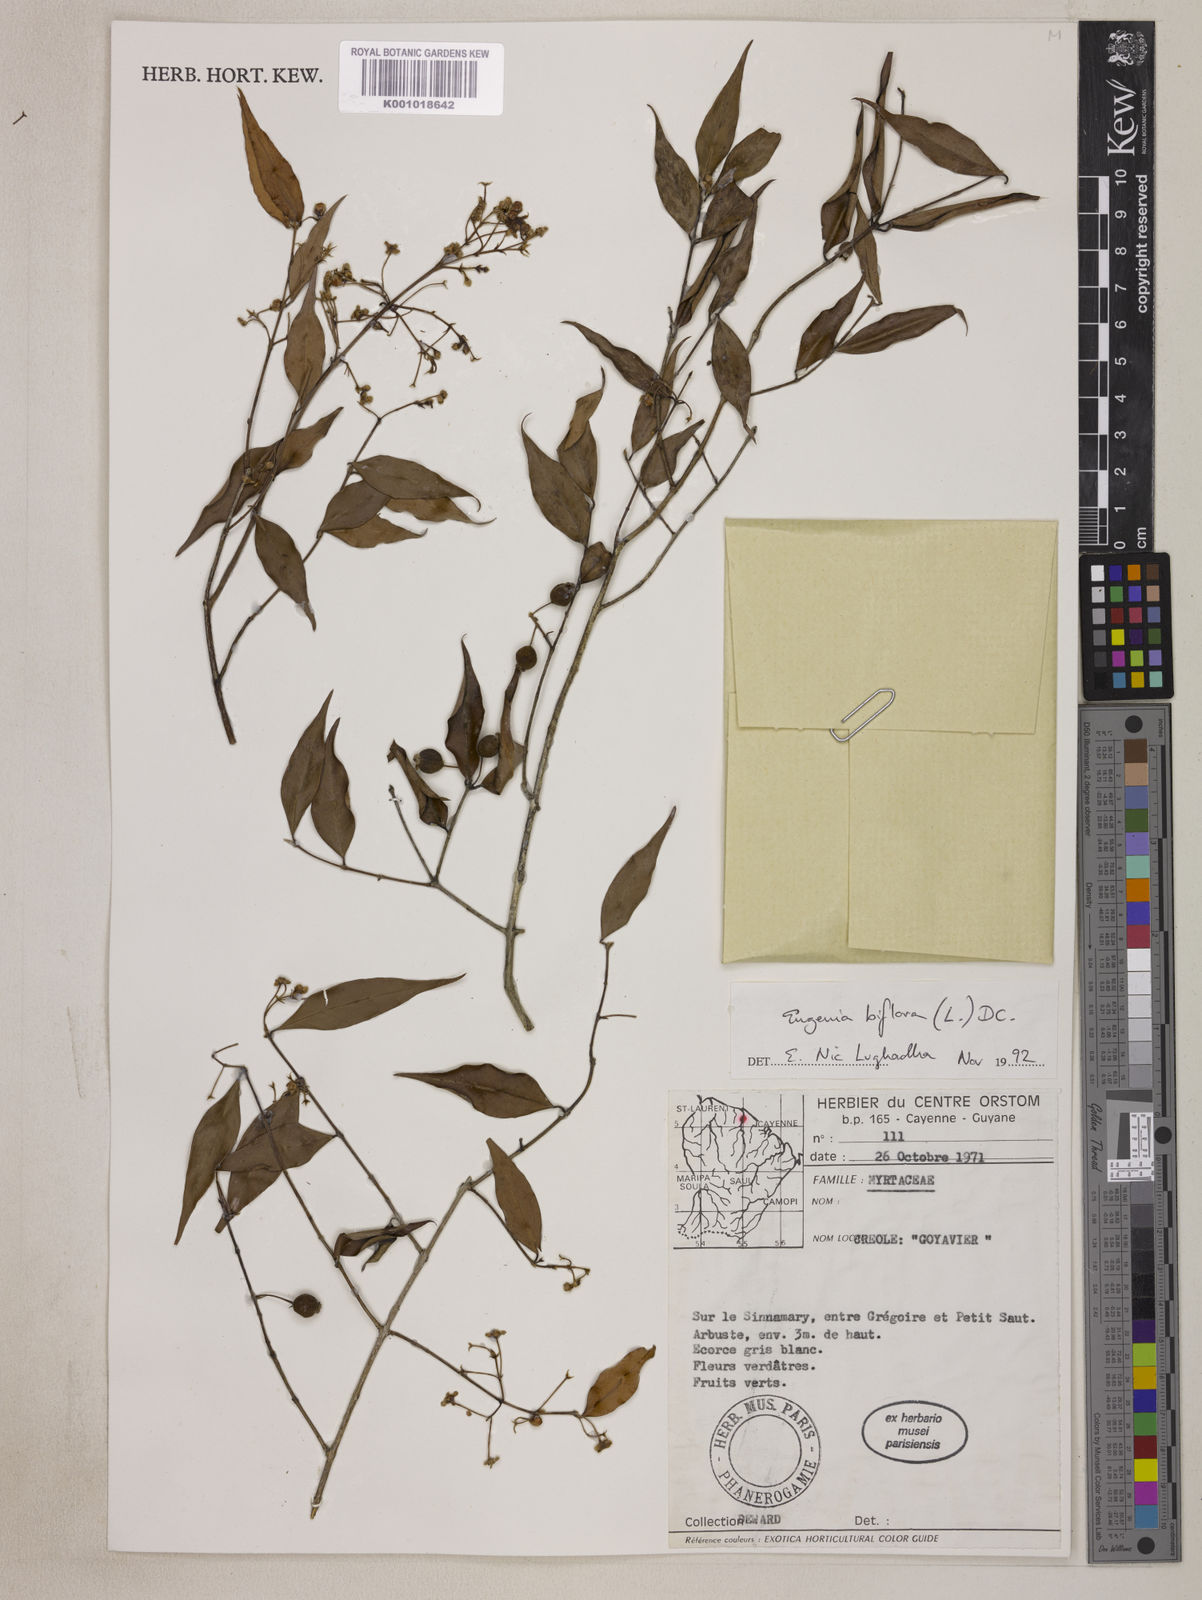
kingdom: Plantae
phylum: Tracheophyta
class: Magnoliopsida
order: Myrtales
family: Myrtaceae
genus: Eugenia
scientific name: Eugenia biflora
